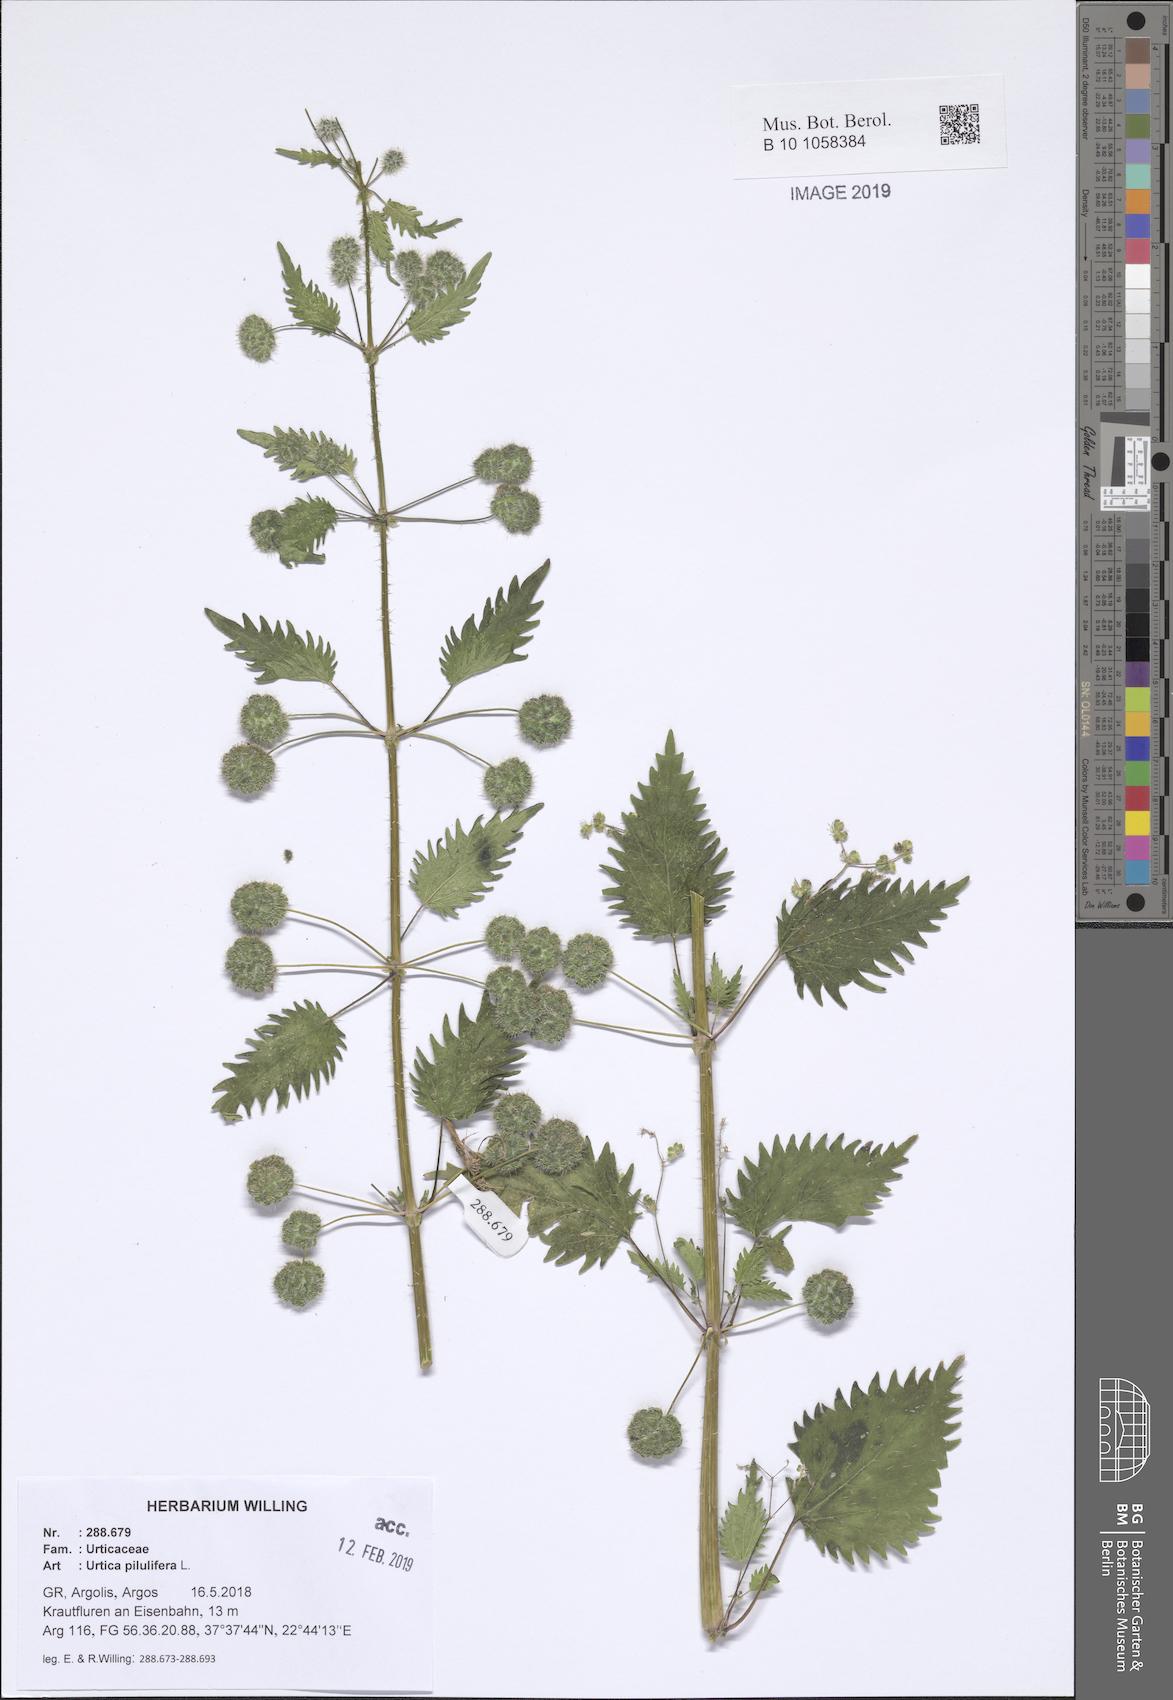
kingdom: Plantae
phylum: Tracheophyta
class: Magnoliopsida
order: Rosales
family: Urticaceae
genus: Urtica
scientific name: Urtica pilulifera
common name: Roman nettle
